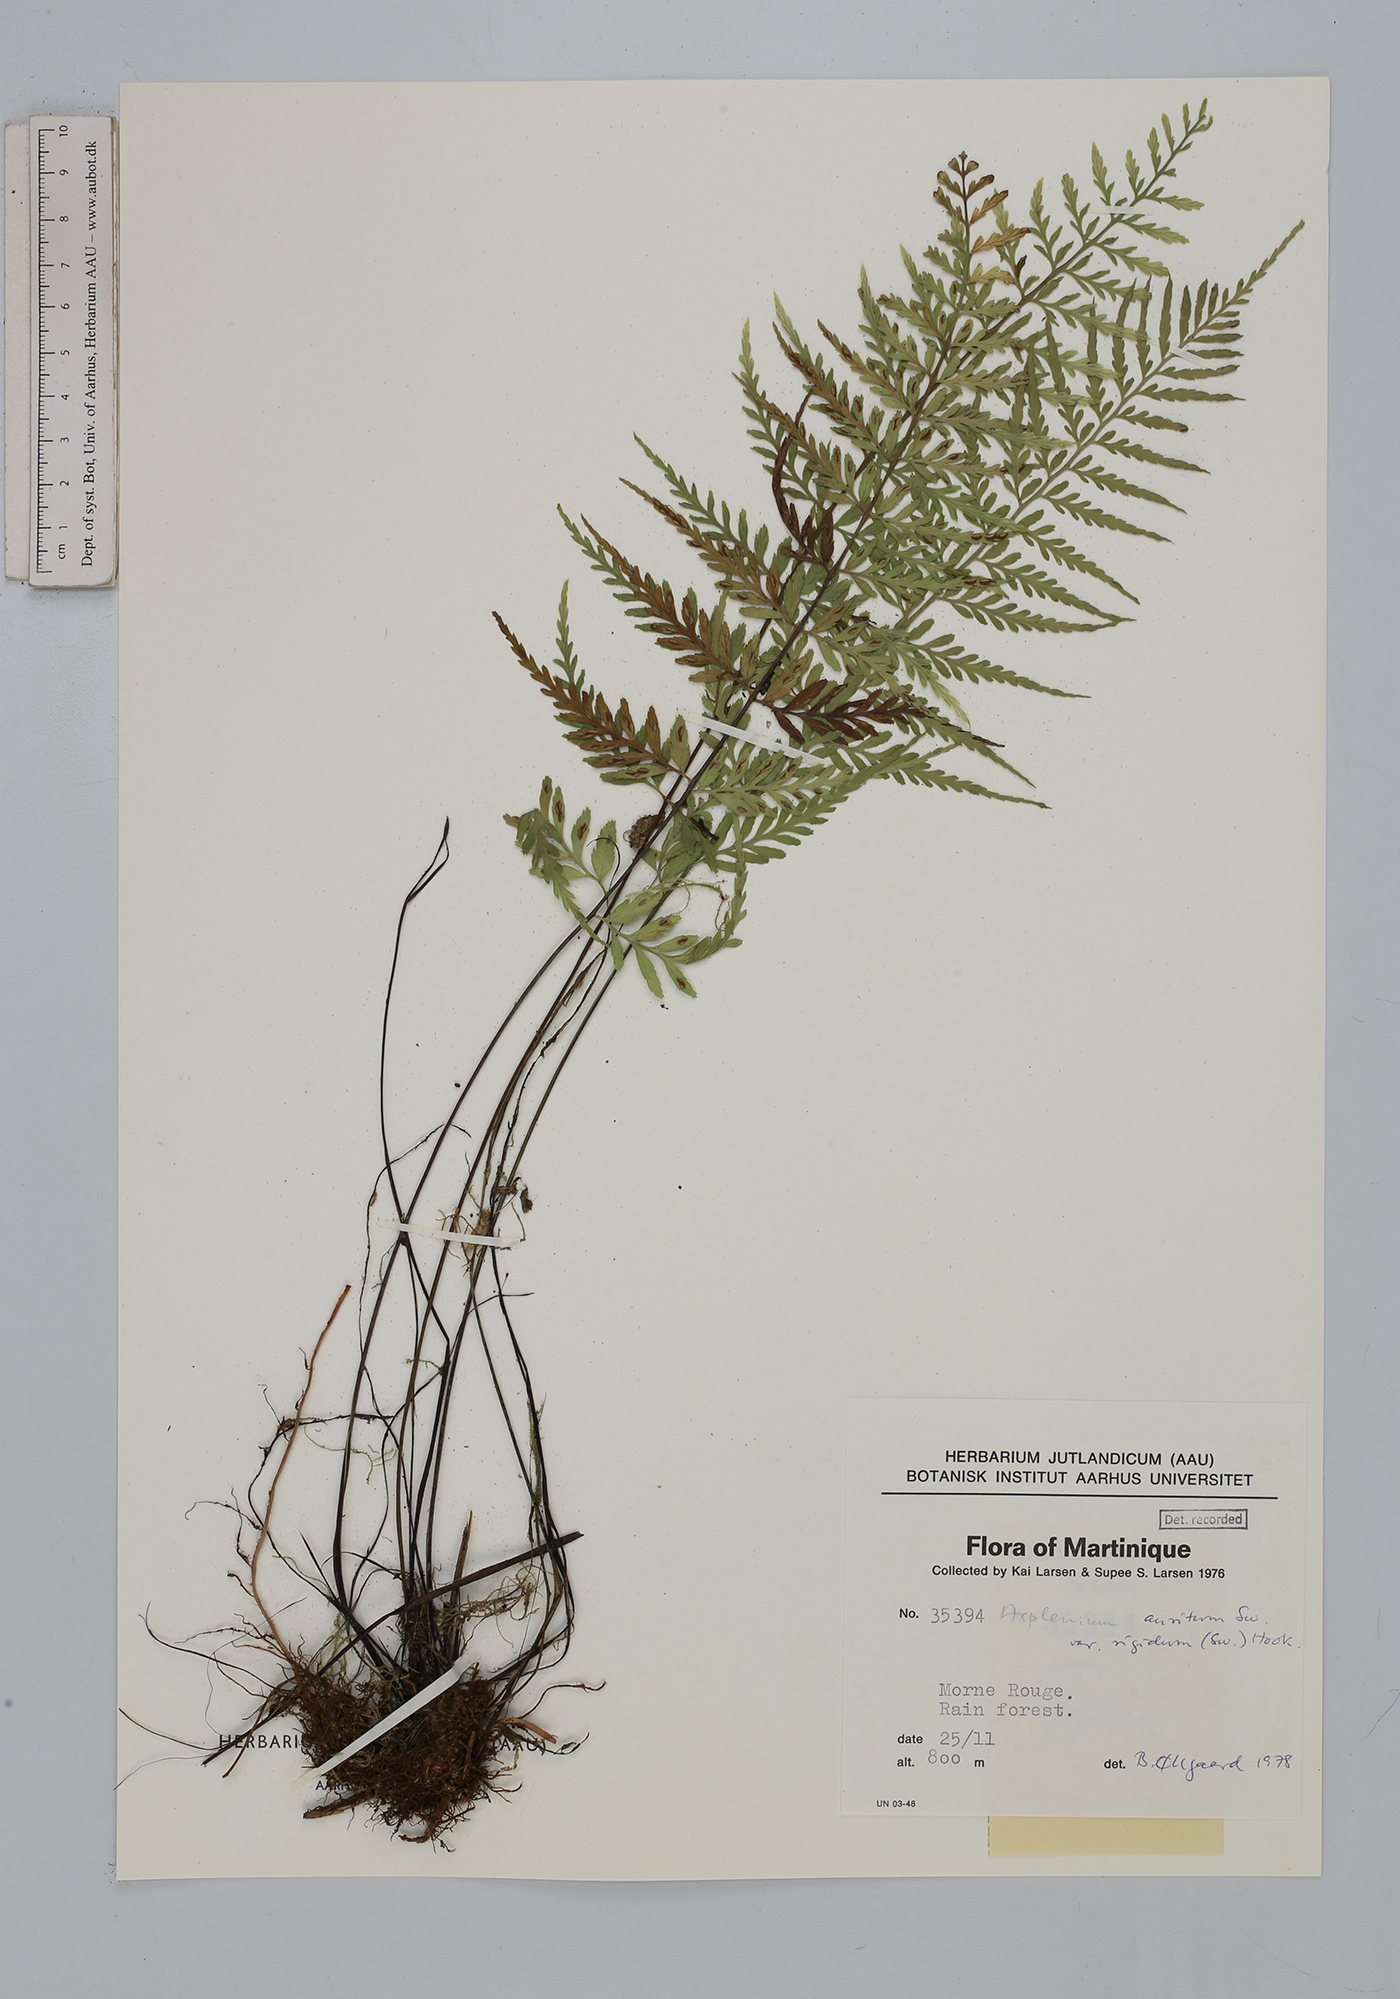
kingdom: Plantae
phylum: Tracheophyta
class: Polypodiopsida
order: Polypodiales
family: Aspleniaceae
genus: Asplenium
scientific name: Asplenium cuspidatum
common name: Eared spleenwort
